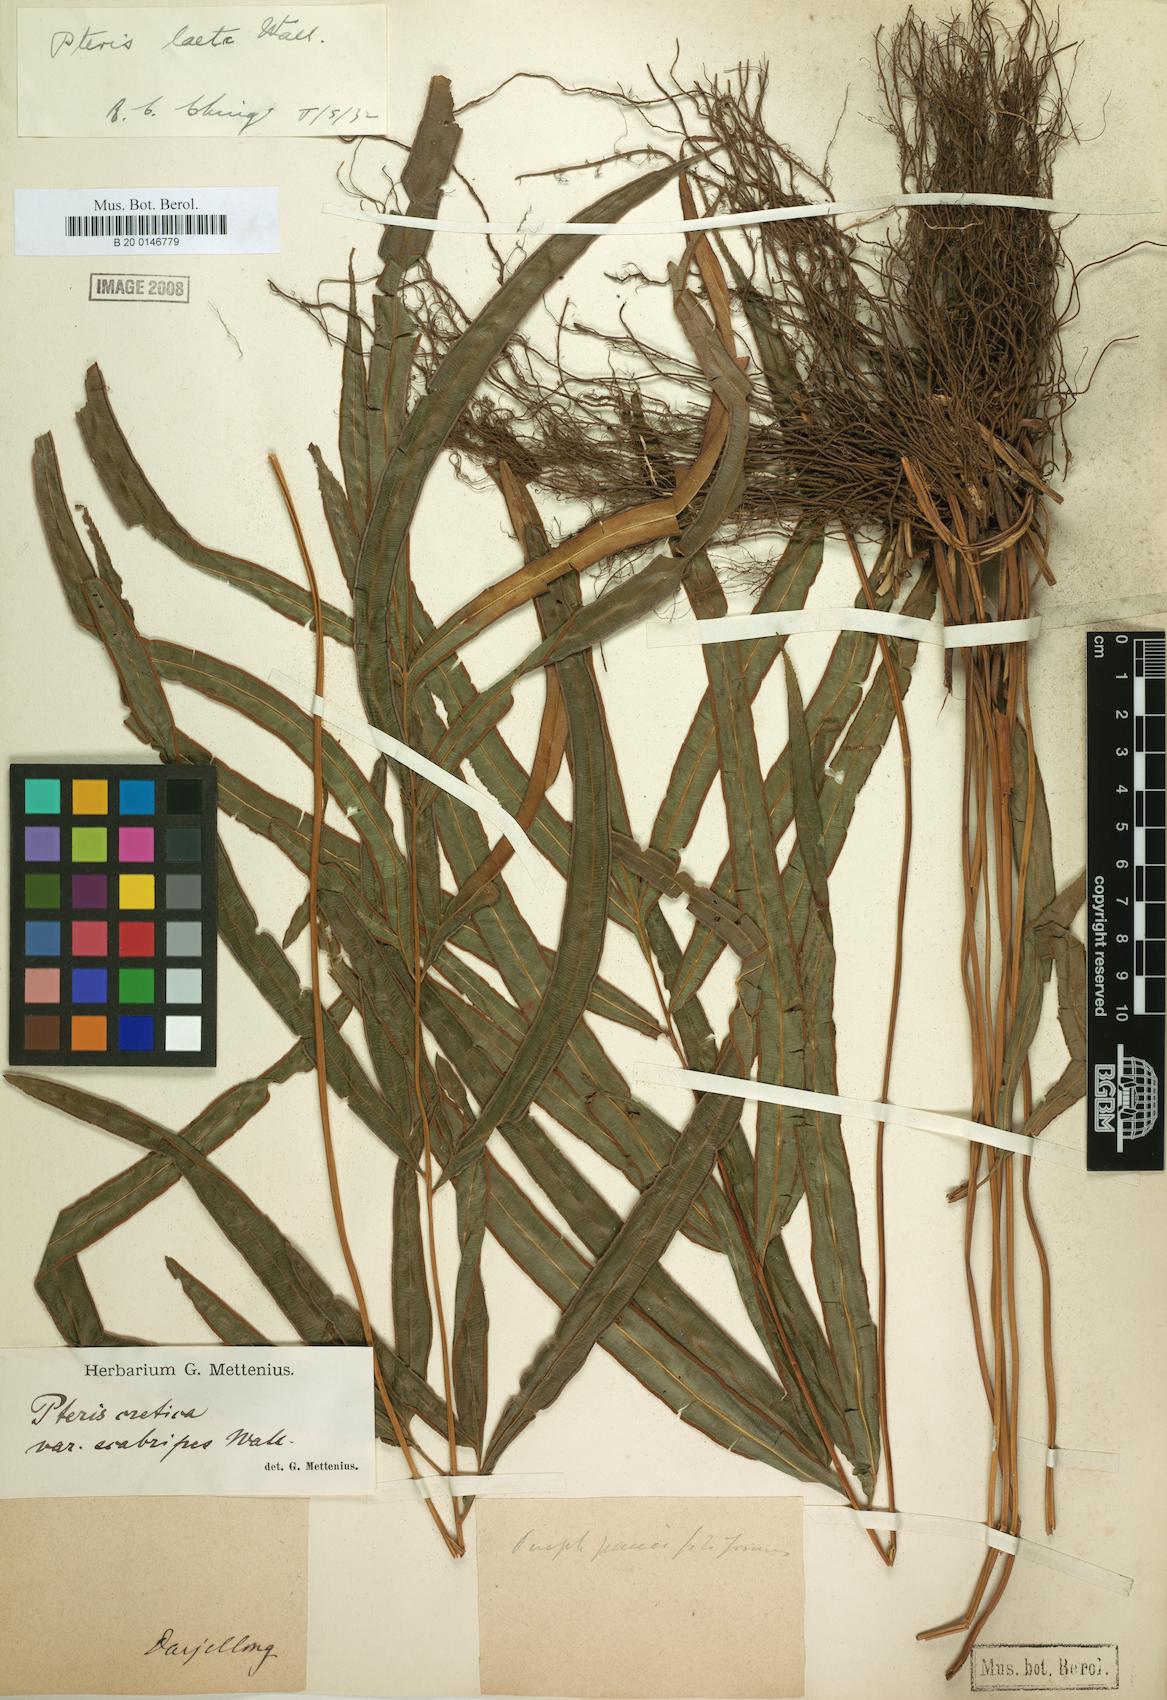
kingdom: Plantae
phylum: Tracheophyta
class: Polypodiopsida
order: Polypodiales
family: Pteridaceae
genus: Pteris
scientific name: Pteris scabripes
